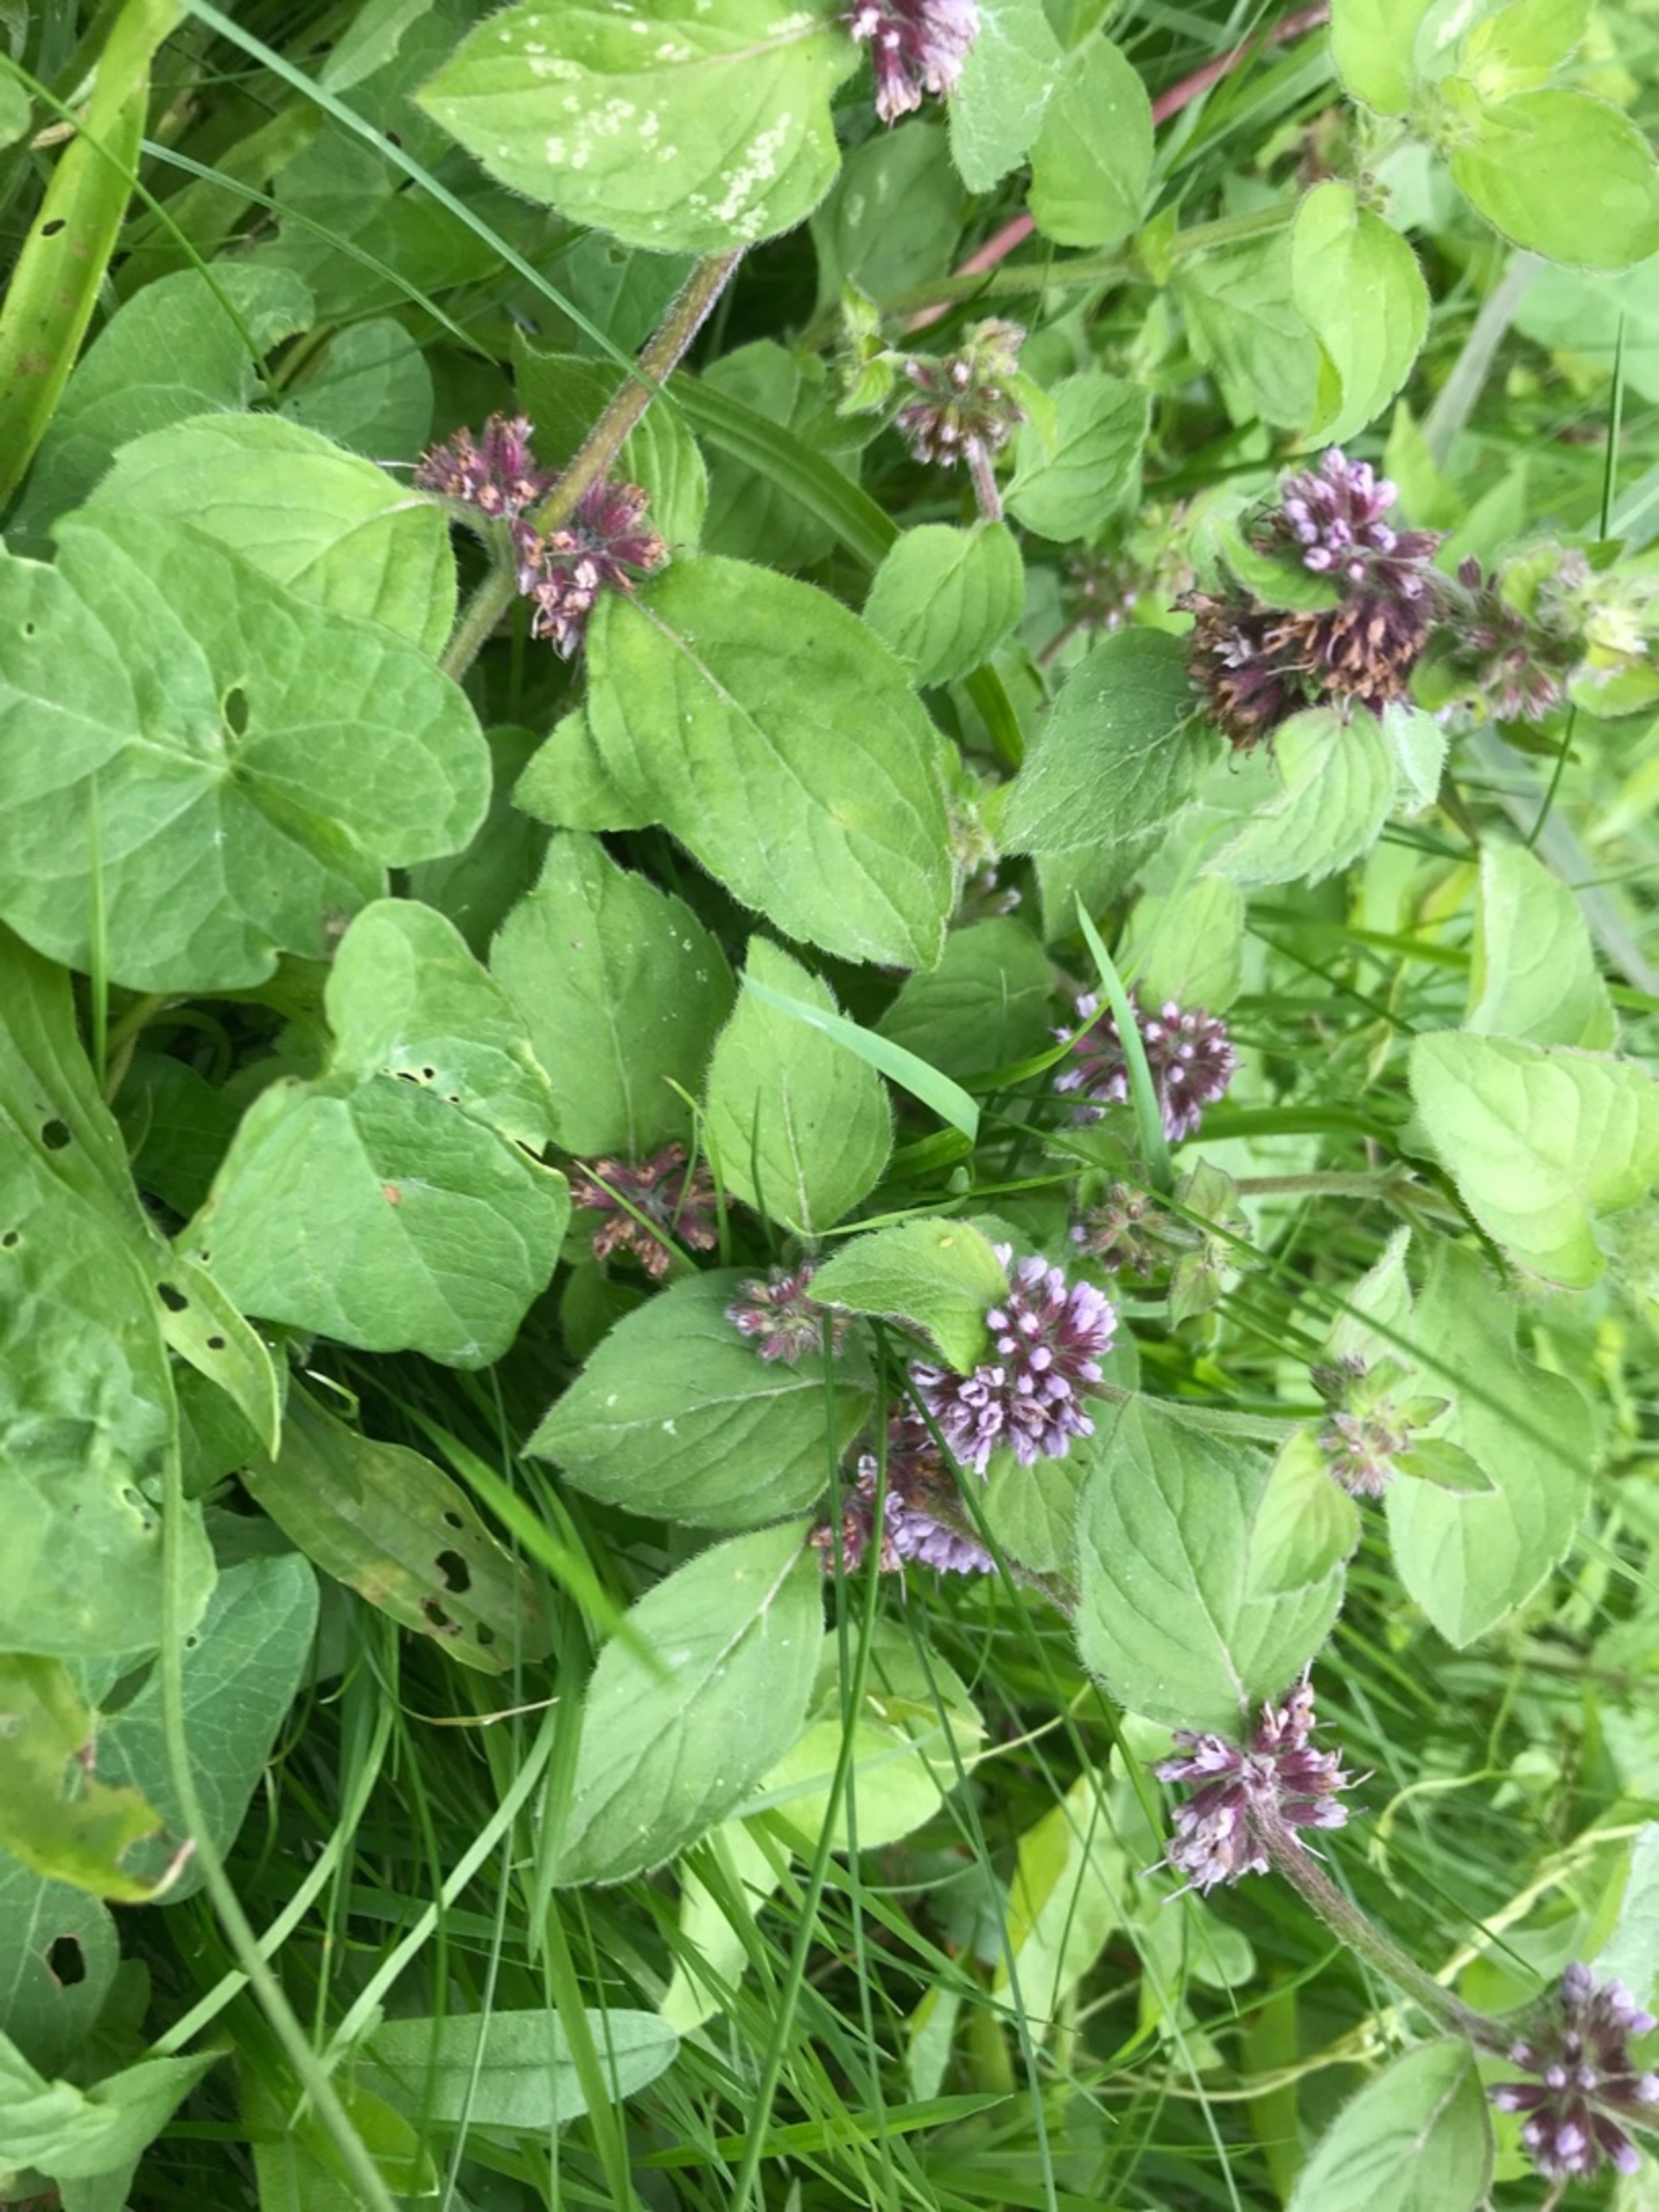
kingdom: Plantae
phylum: Tracheophyta
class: Magnoliopsida
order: Lamiales
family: Lamiaceae
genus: Mentha
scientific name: Mentha verticillata
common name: Krans-mynte
